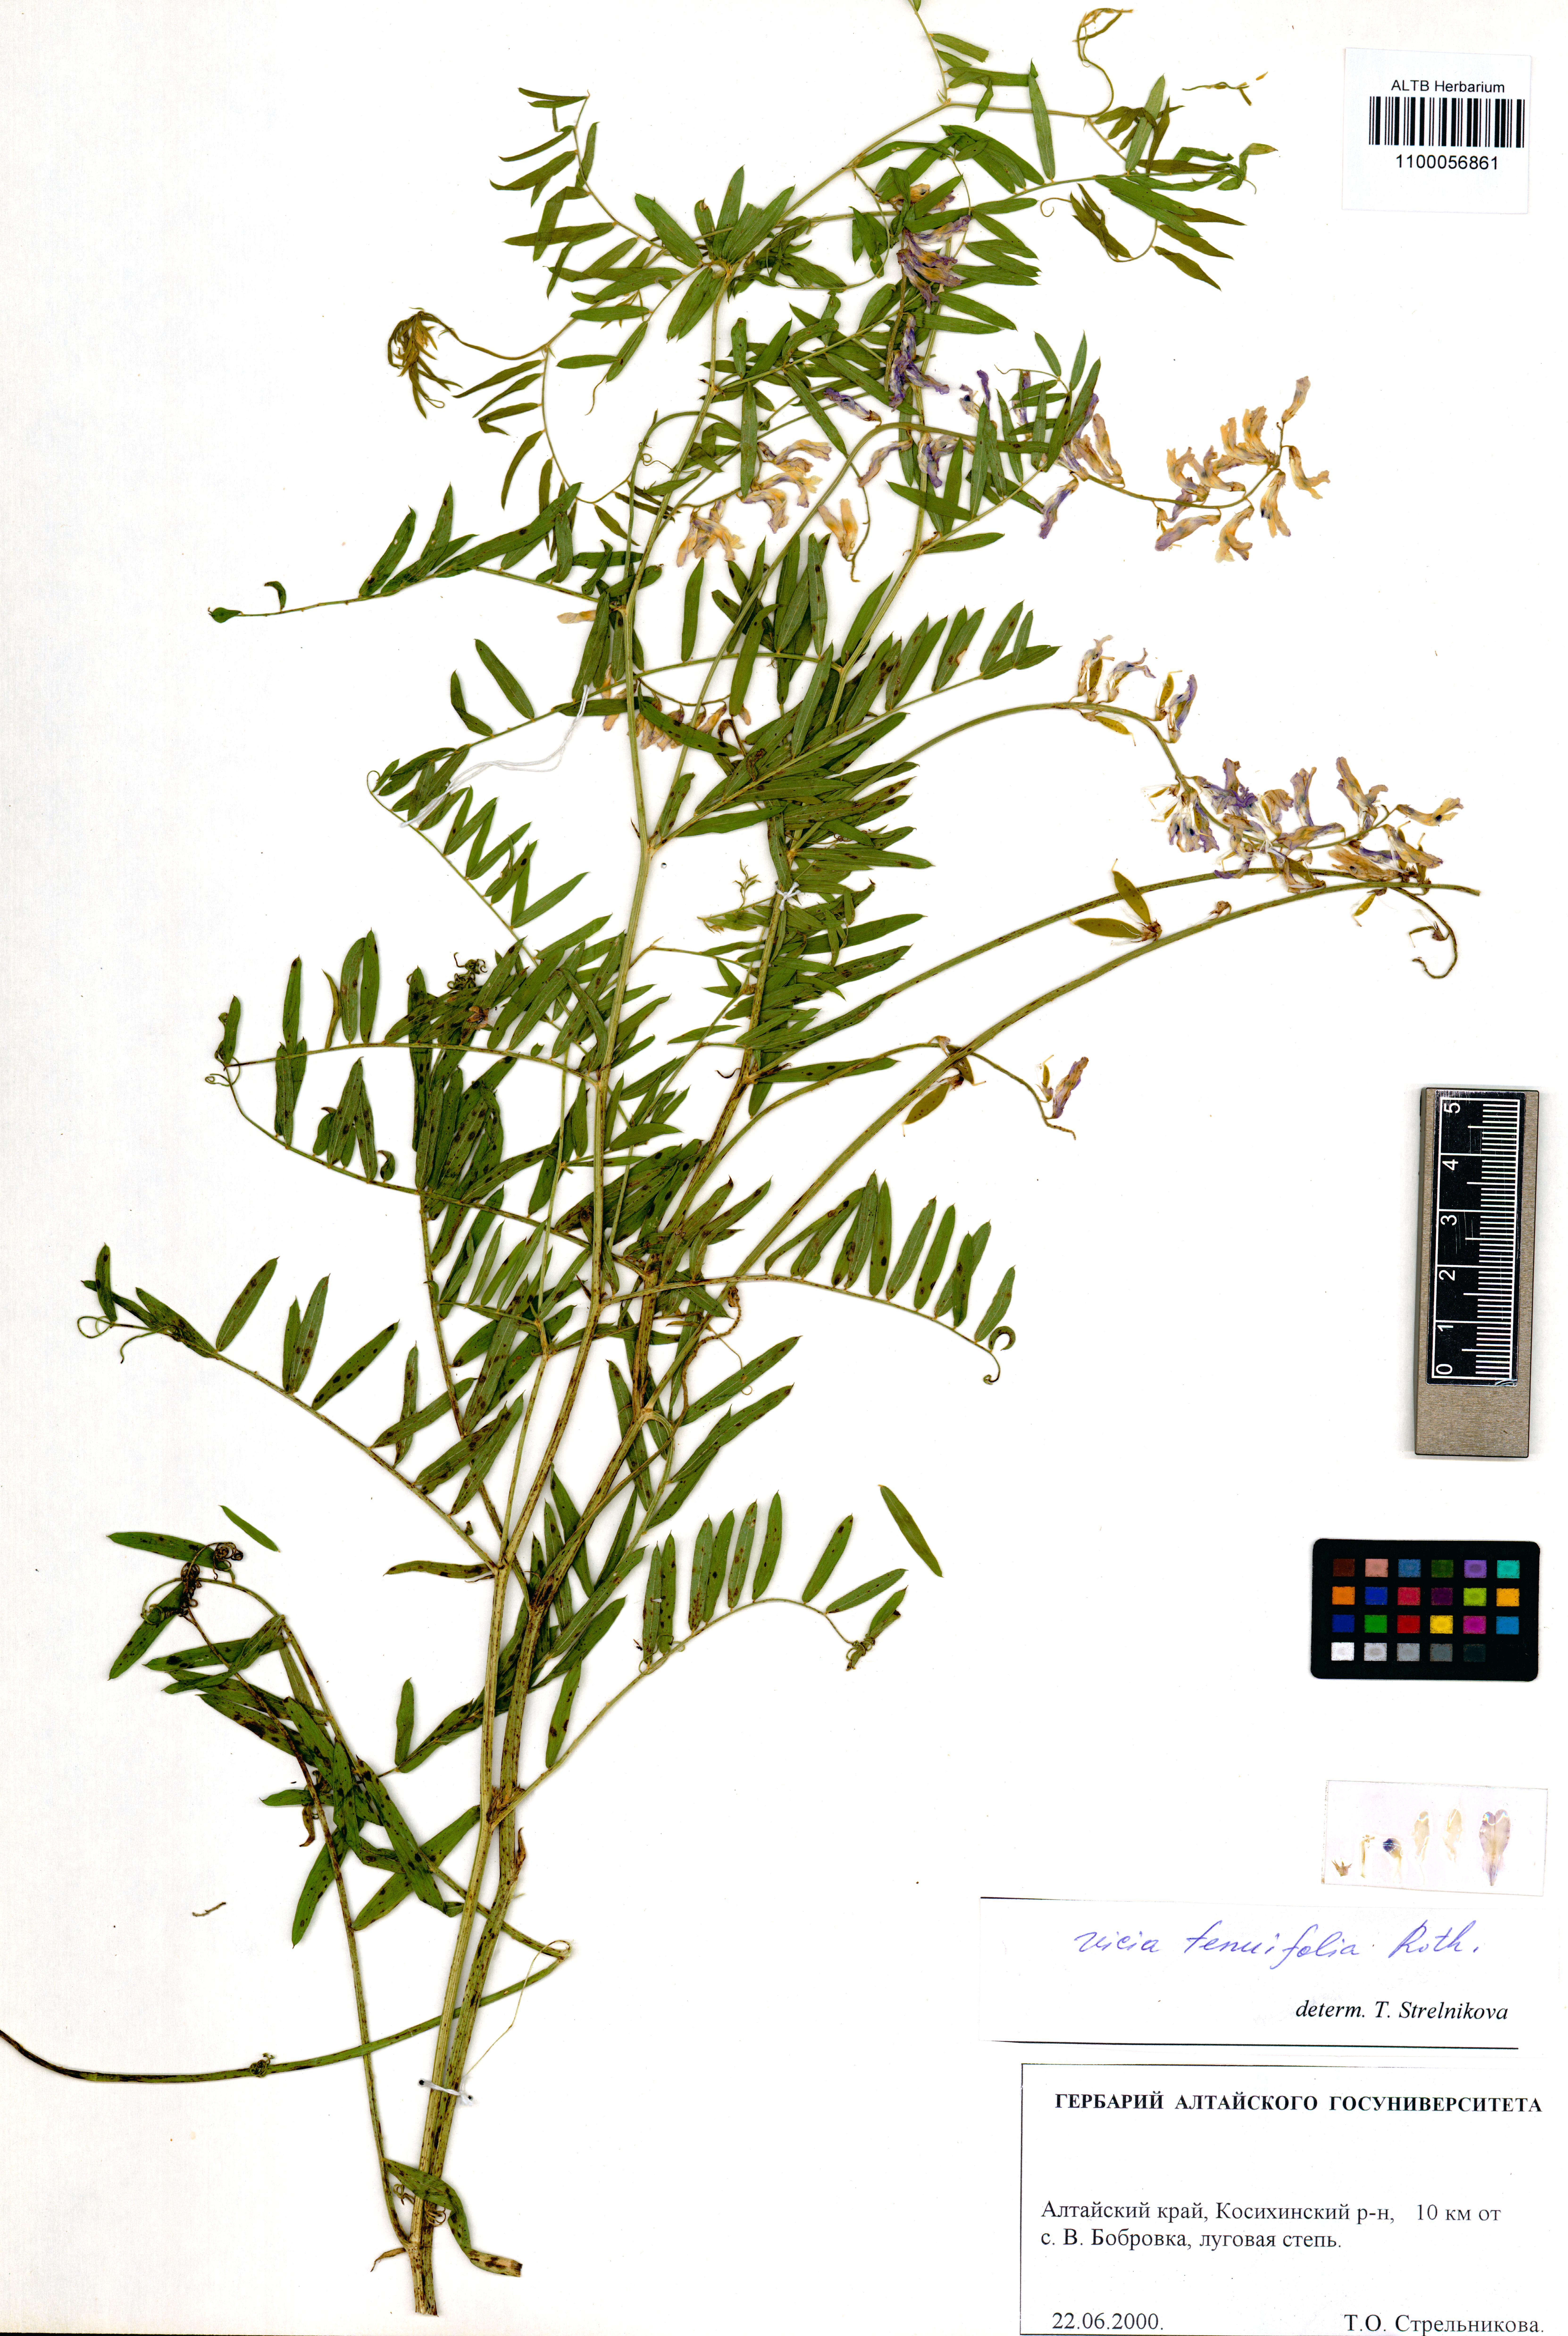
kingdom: Plantae
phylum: Tracheophyta
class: Magnoliopsida
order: Fabales
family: Fabaceae
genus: Vicia
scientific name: Vicia tenuifolia
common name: Fine-leaved vetch
